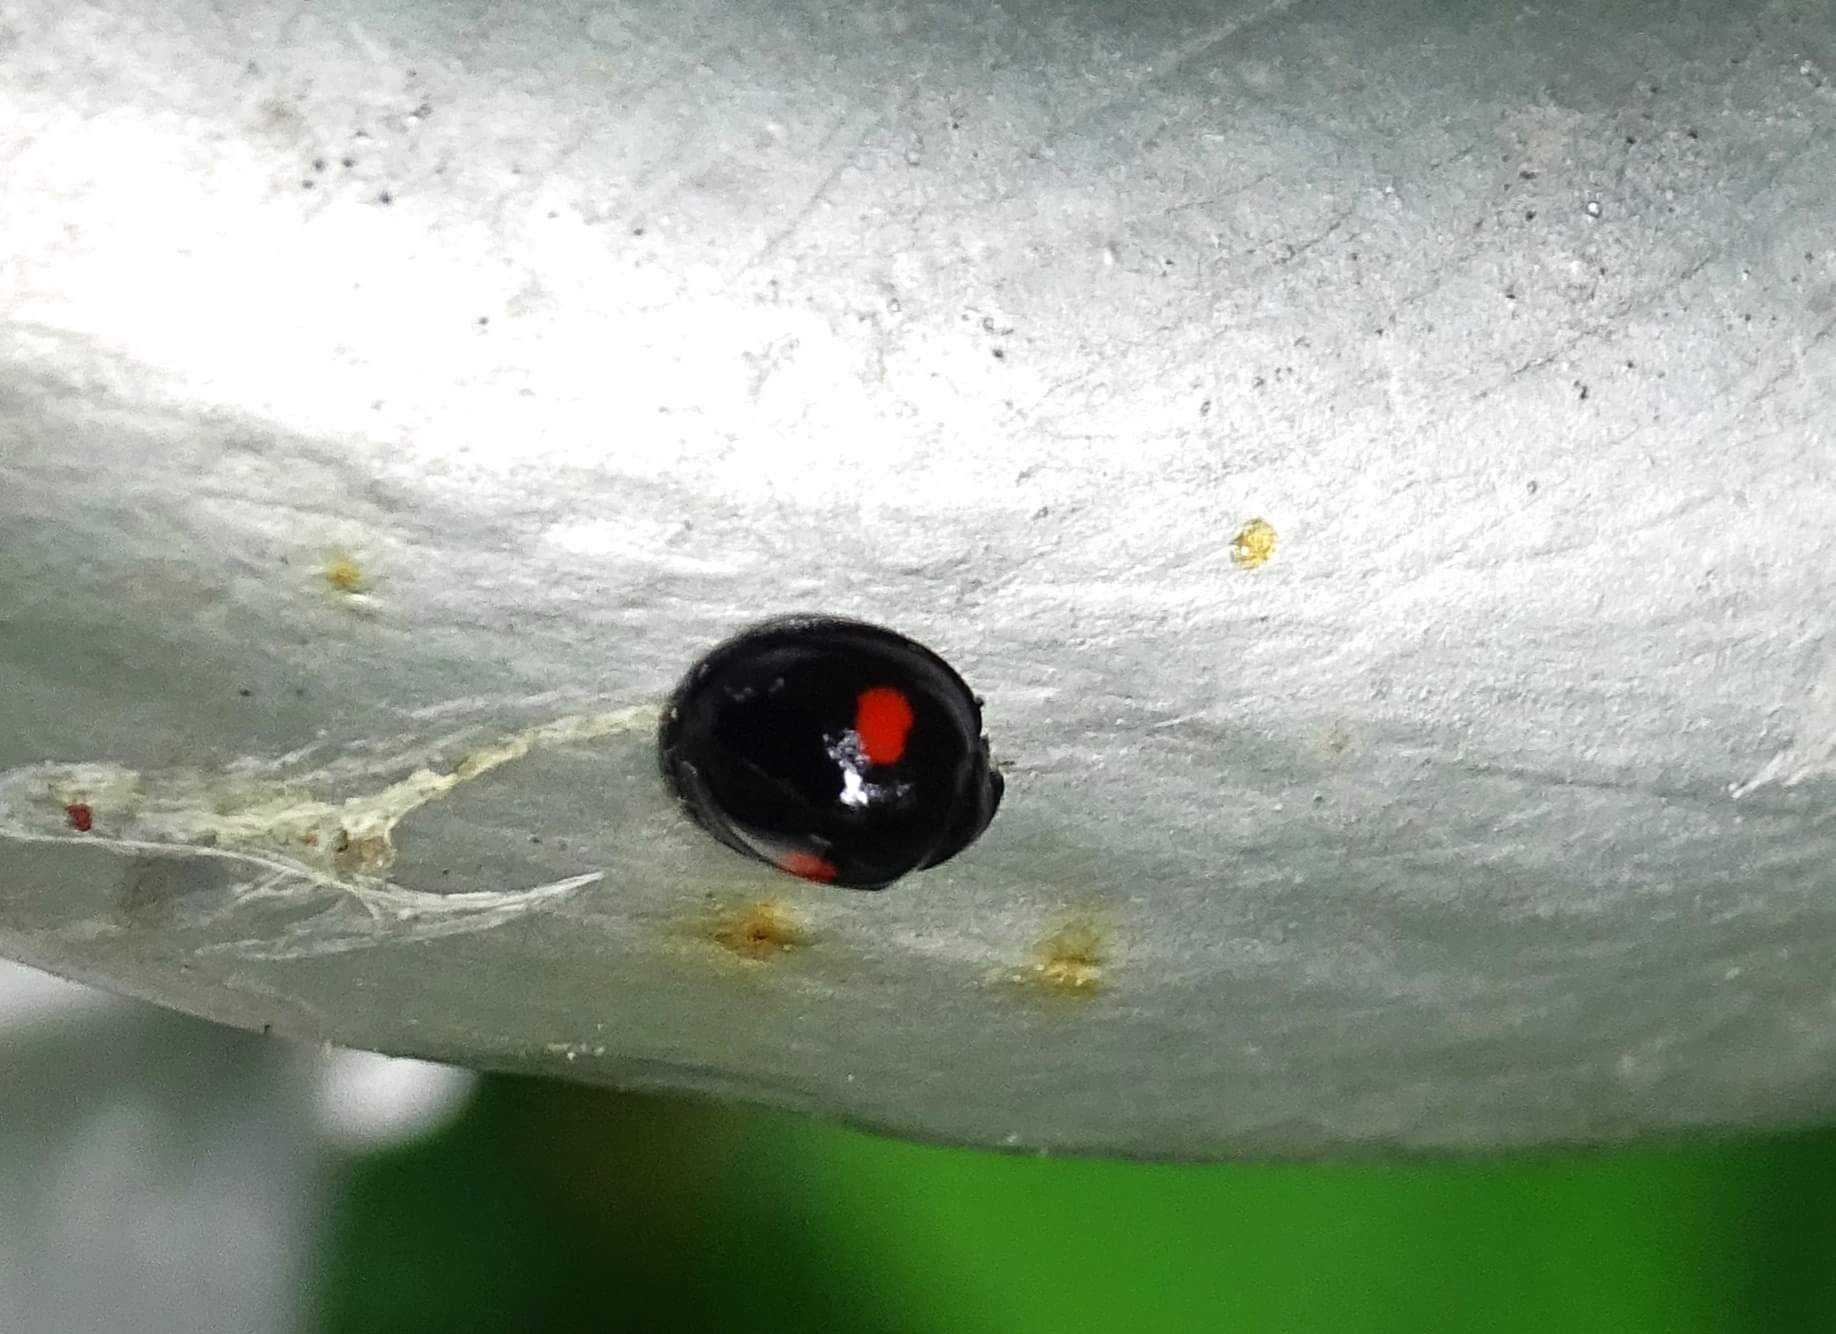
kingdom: Animalia
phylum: Arthropoda
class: Insecta
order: Coleoptera
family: Coccinellidae
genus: Chilocorus
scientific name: Chilocorus renipustulatus
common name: Askemariehøne
